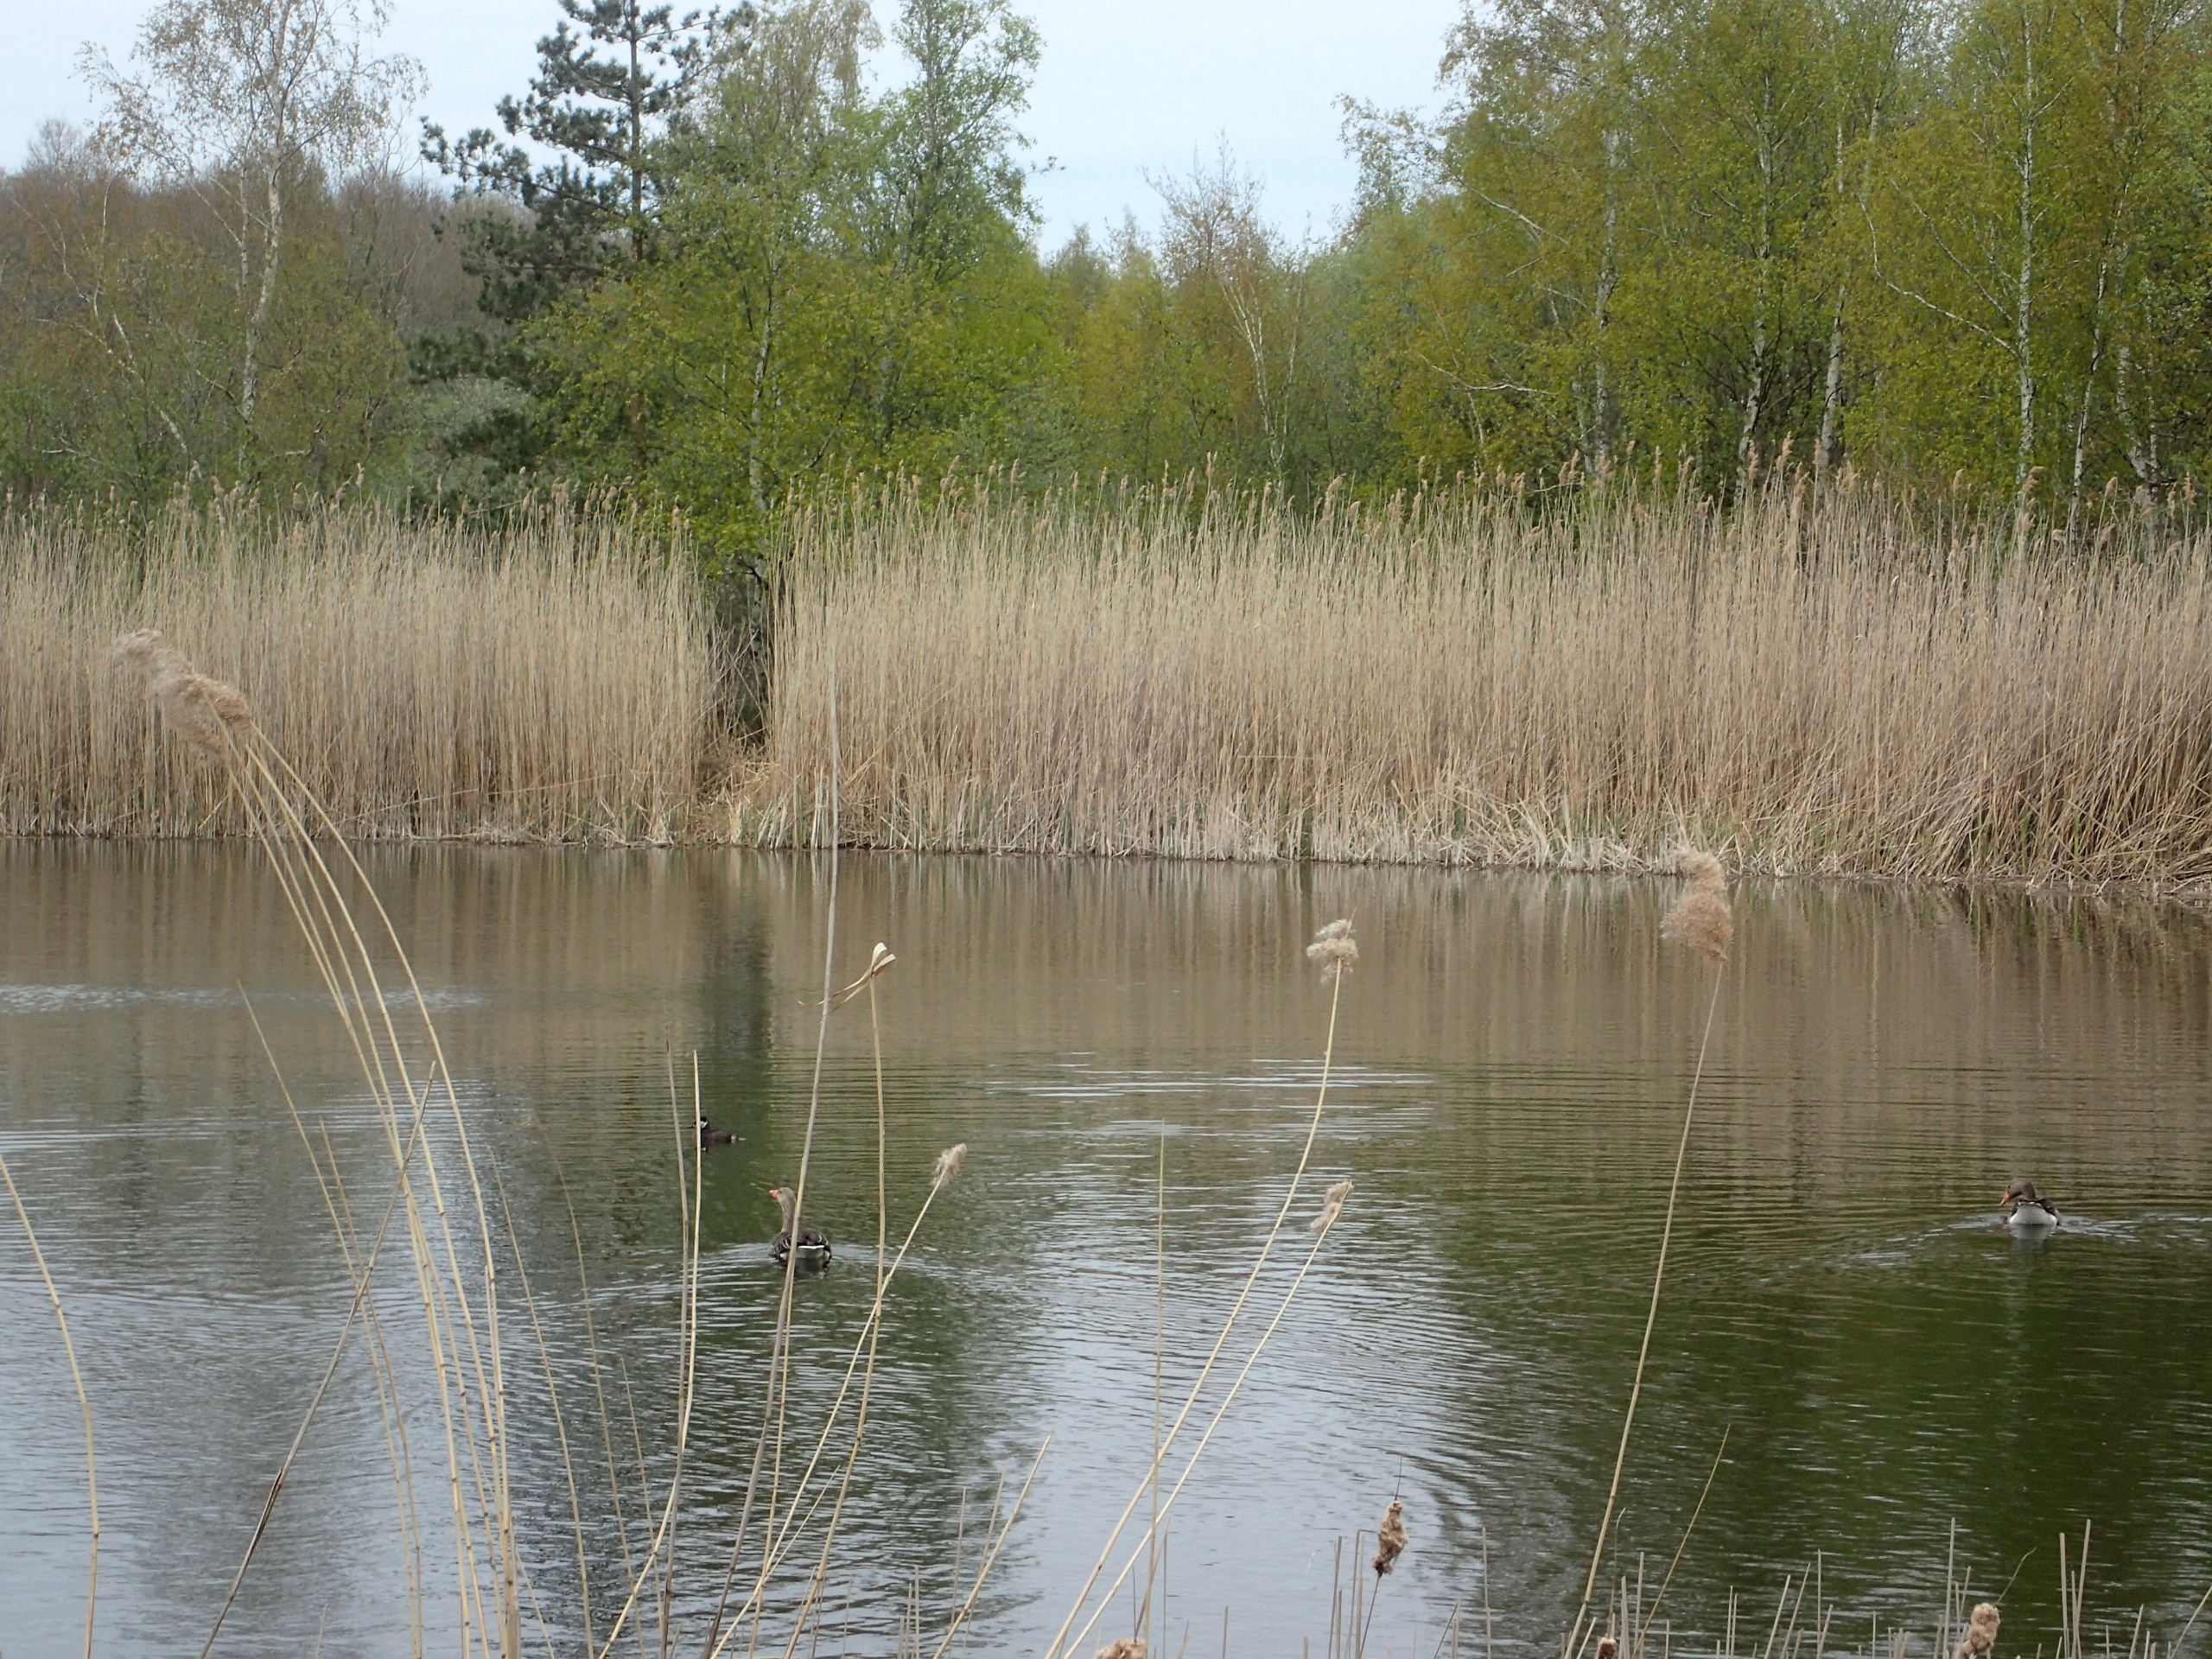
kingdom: Animalia
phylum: Chordata
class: Aves
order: Podicipediformes
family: Podicipedidae
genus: Podiceps
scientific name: Podiceps grisegena
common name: Gråstrubet lappedykker
